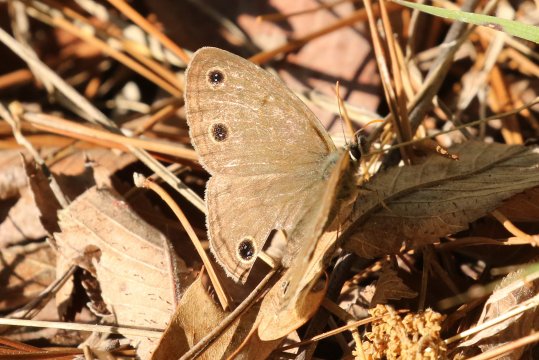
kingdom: Animalia
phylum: Arthropoda
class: Insecta
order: Lepidoptera
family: Nymphalidae
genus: Euptychia
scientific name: Euptychia cymela
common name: Little Wood Satyr
